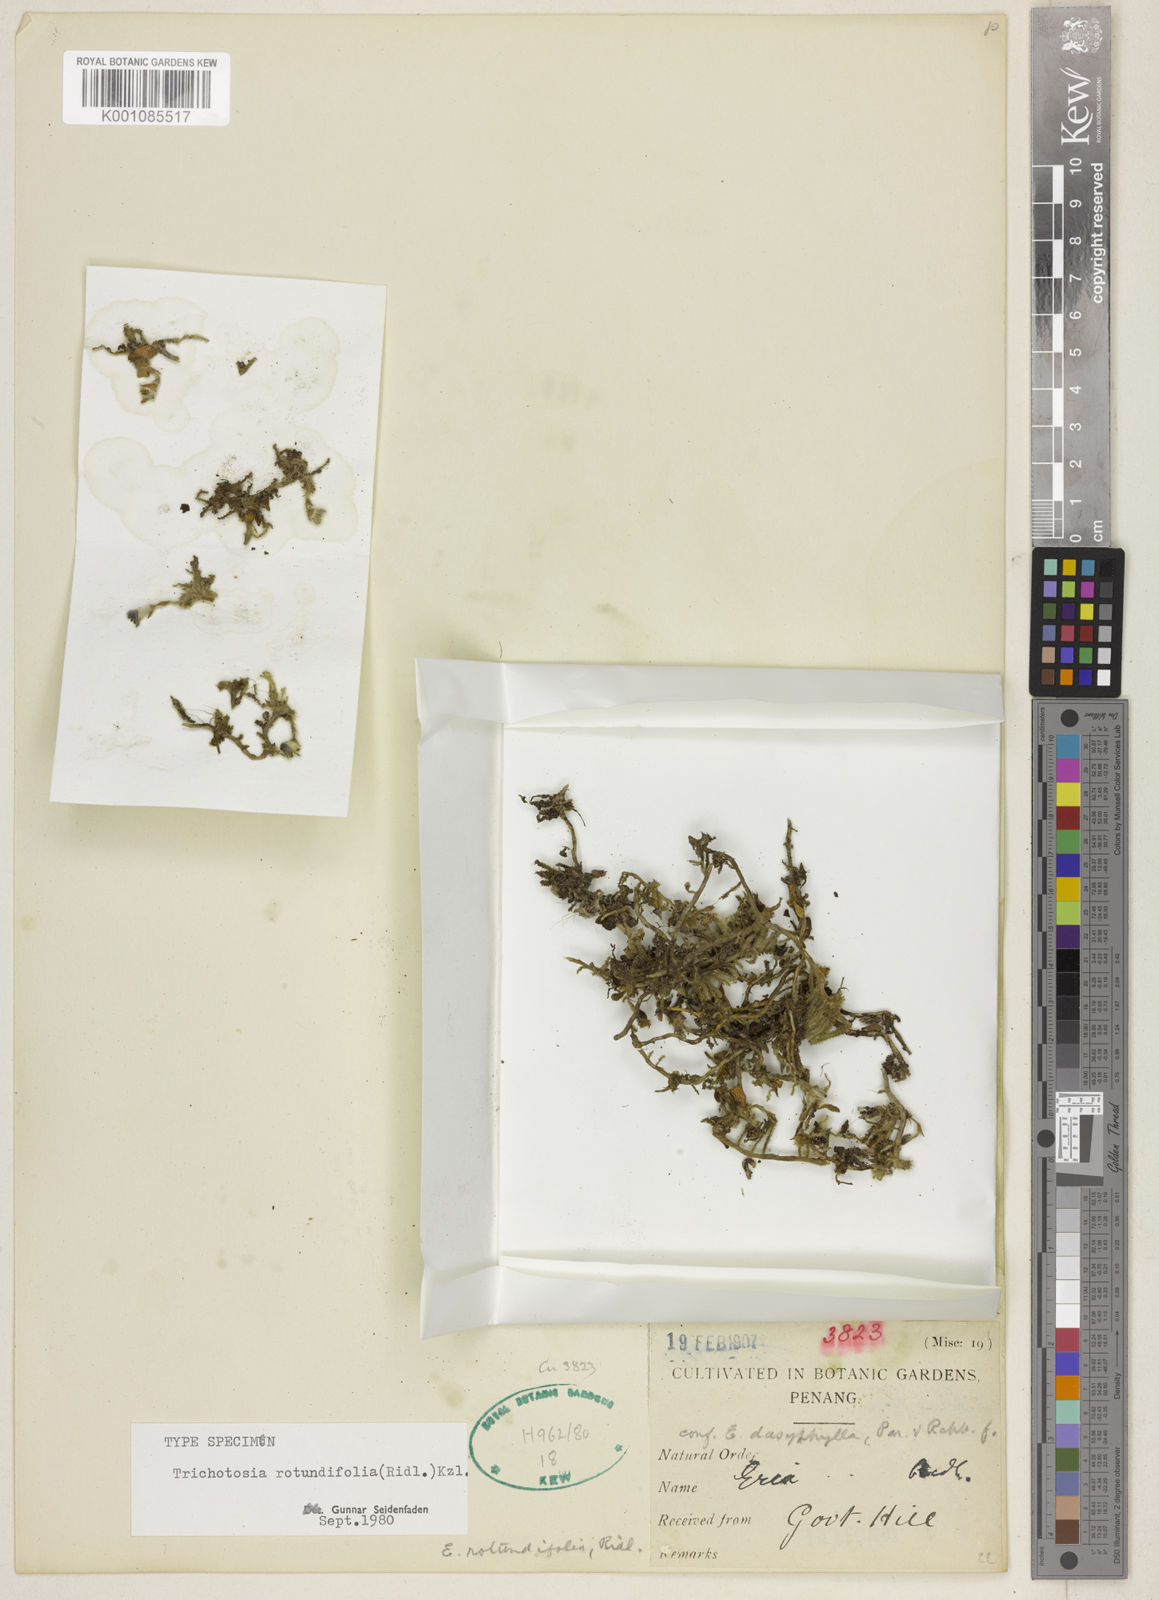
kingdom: Plantae
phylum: Tracheophyta
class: Liliopsida
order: Asparagales
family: Orchidaceae
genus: Trichotosia
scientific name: Trichotosia rotundifolia
